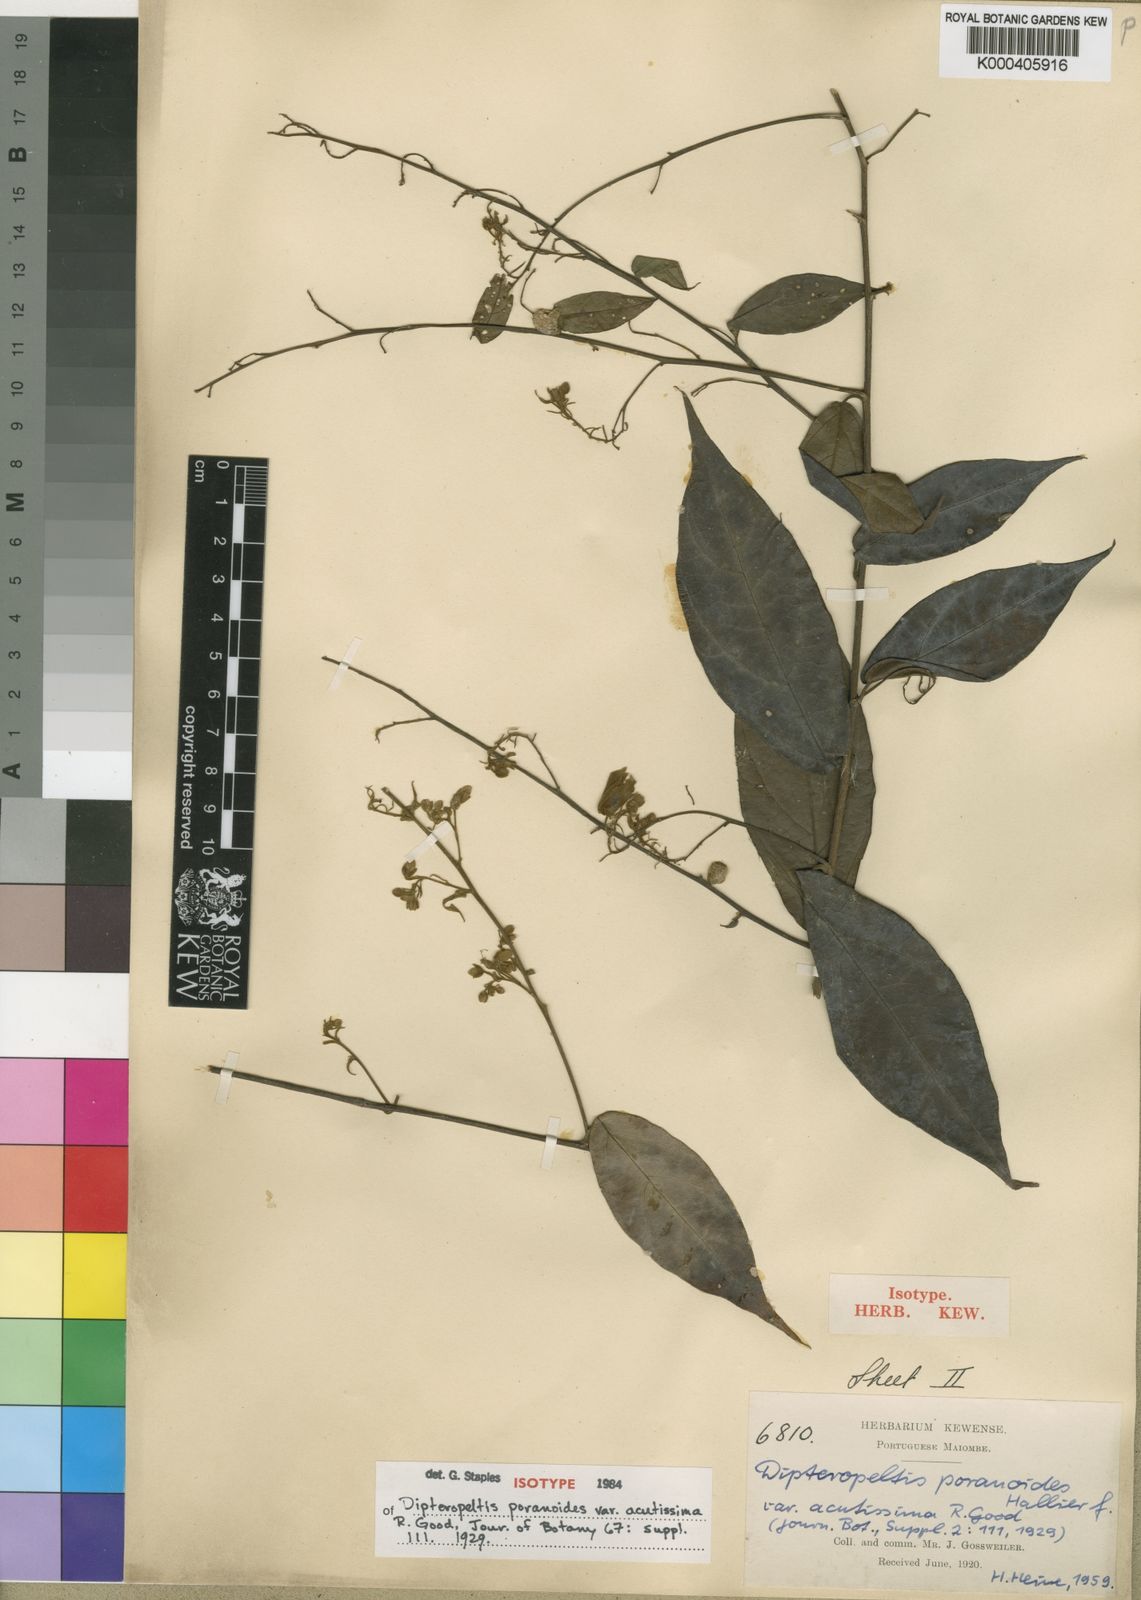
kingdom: Plantae
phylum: Tracheophyta
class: Magnoliopsida
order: Solanales
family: Convolvulaceae
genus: Dipteropeltis
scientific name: Dipteropeltis poranoides
